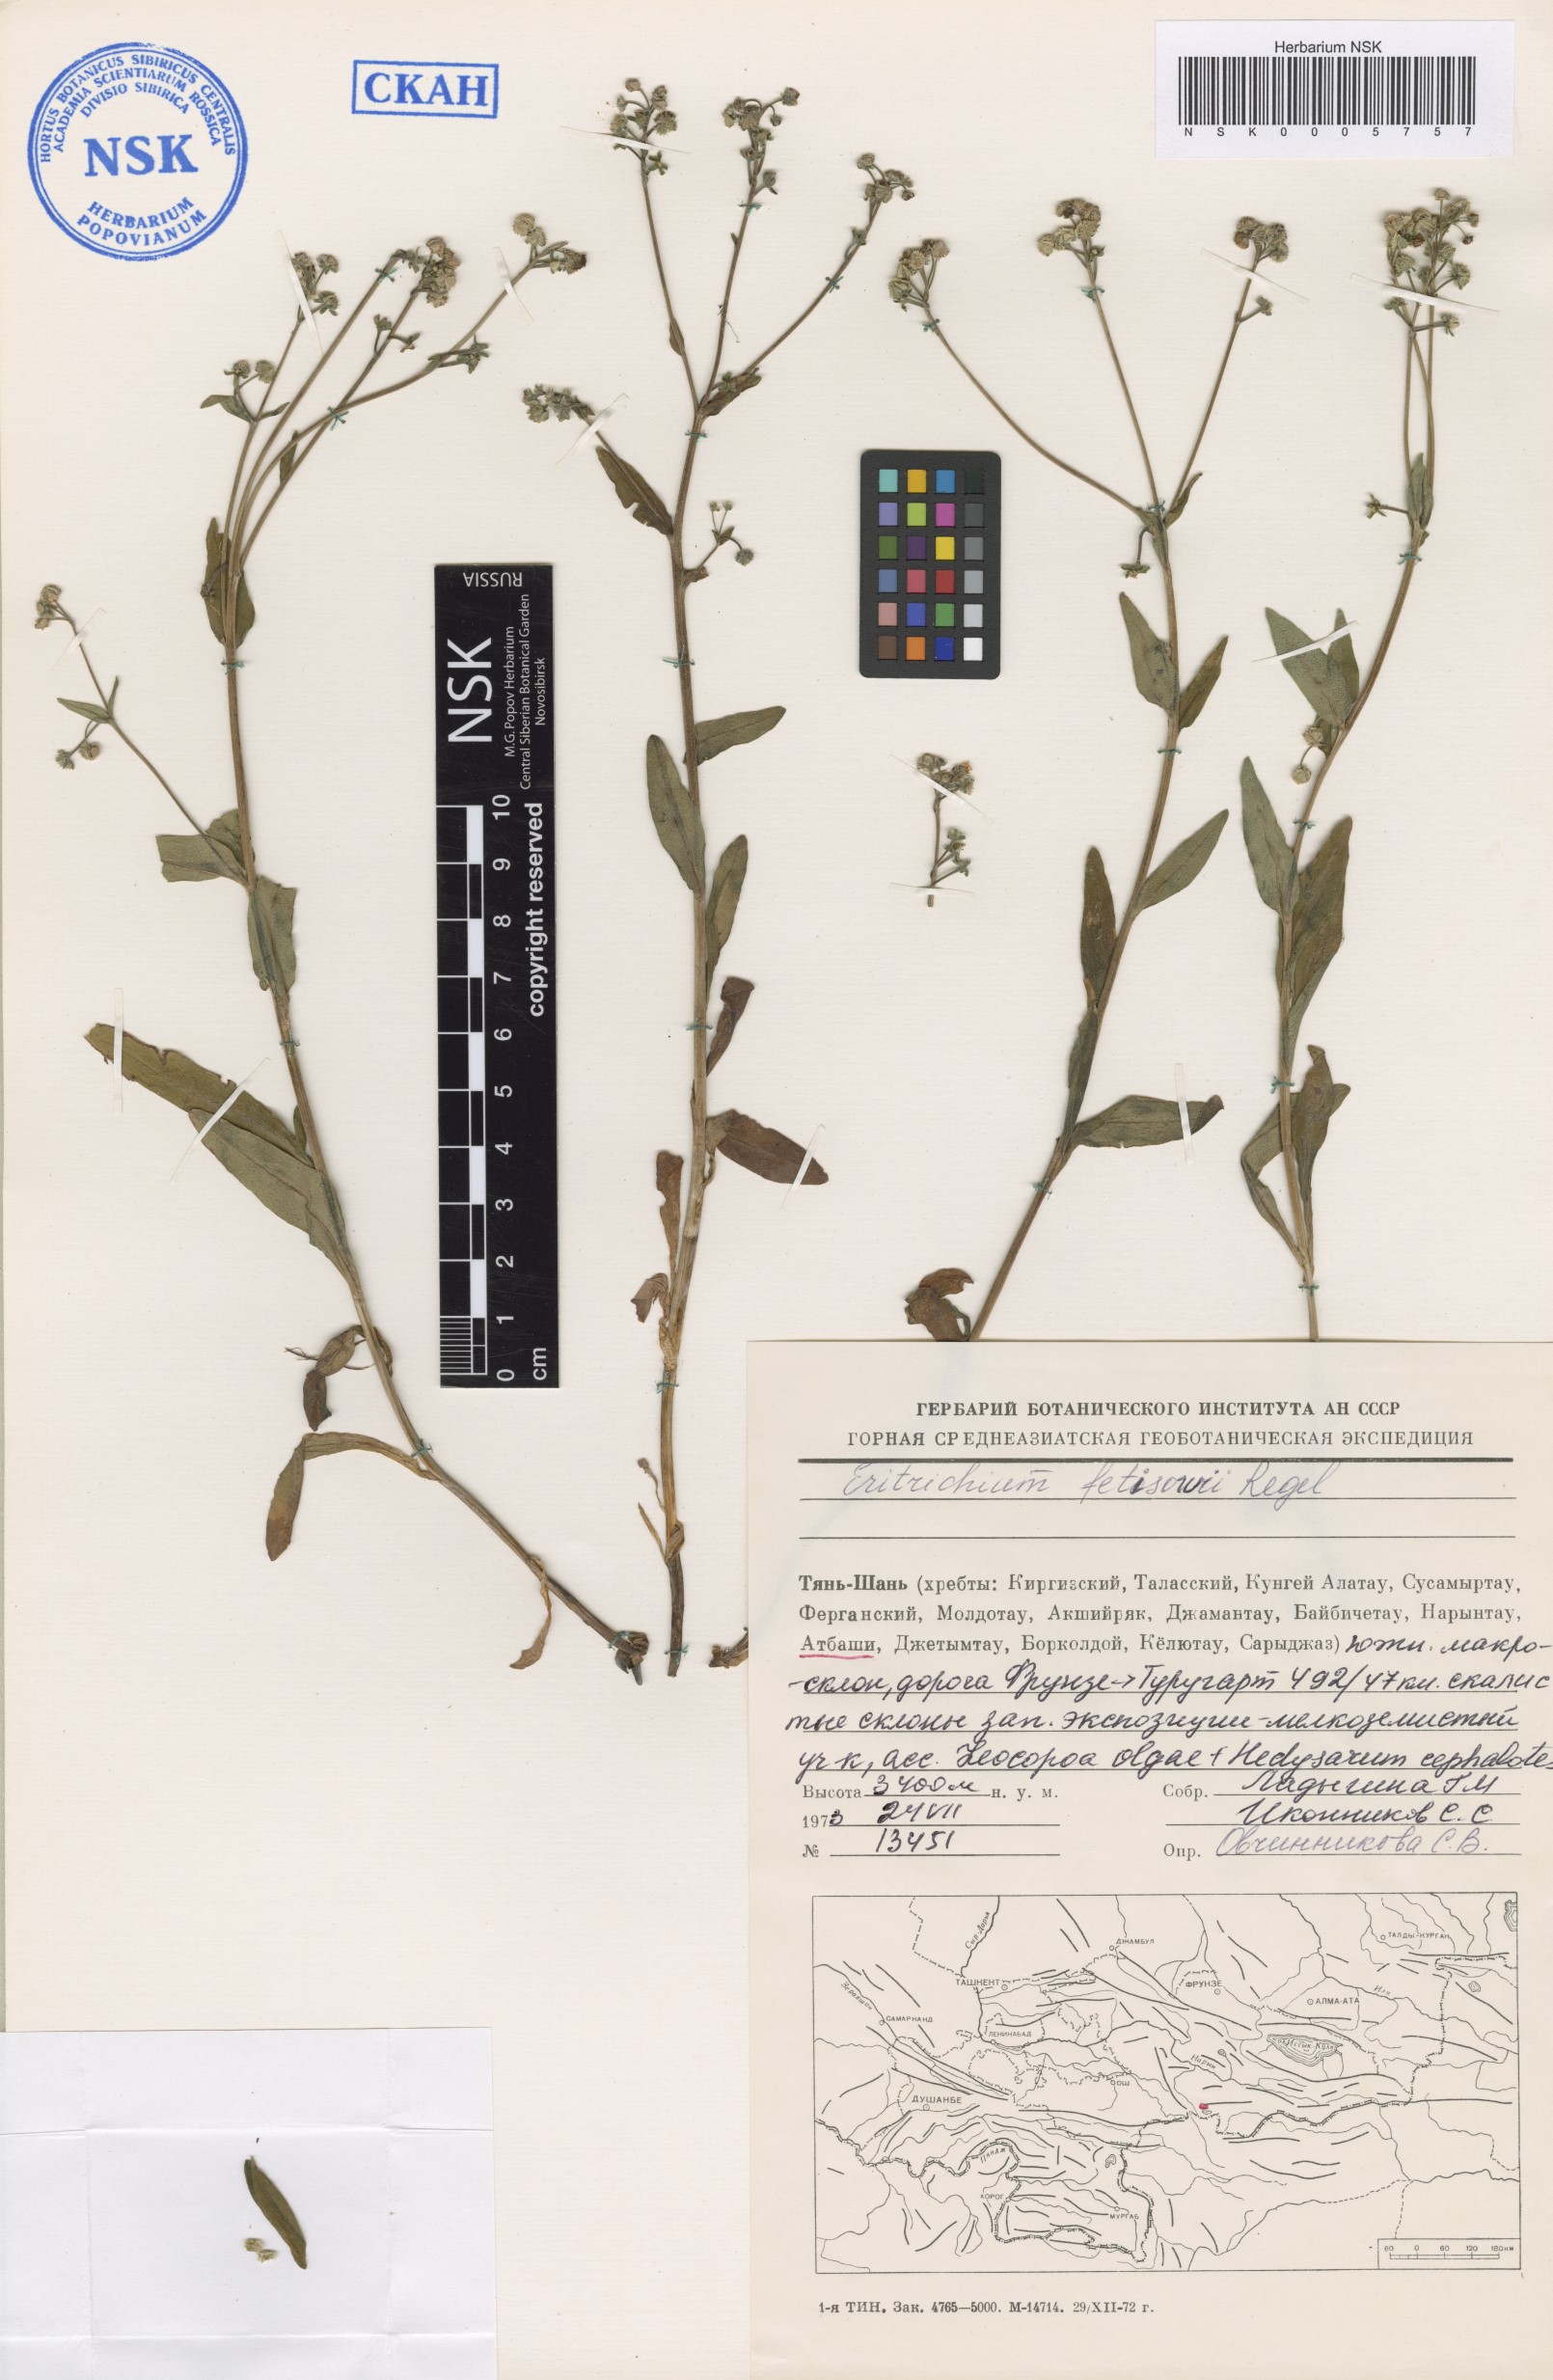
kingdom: Plantae
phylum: Tracheophyta
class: Magnoliopsida
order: Boraginales
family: Boraginaceae
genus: Eritrichium
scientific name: Eritrichium fetisowii
